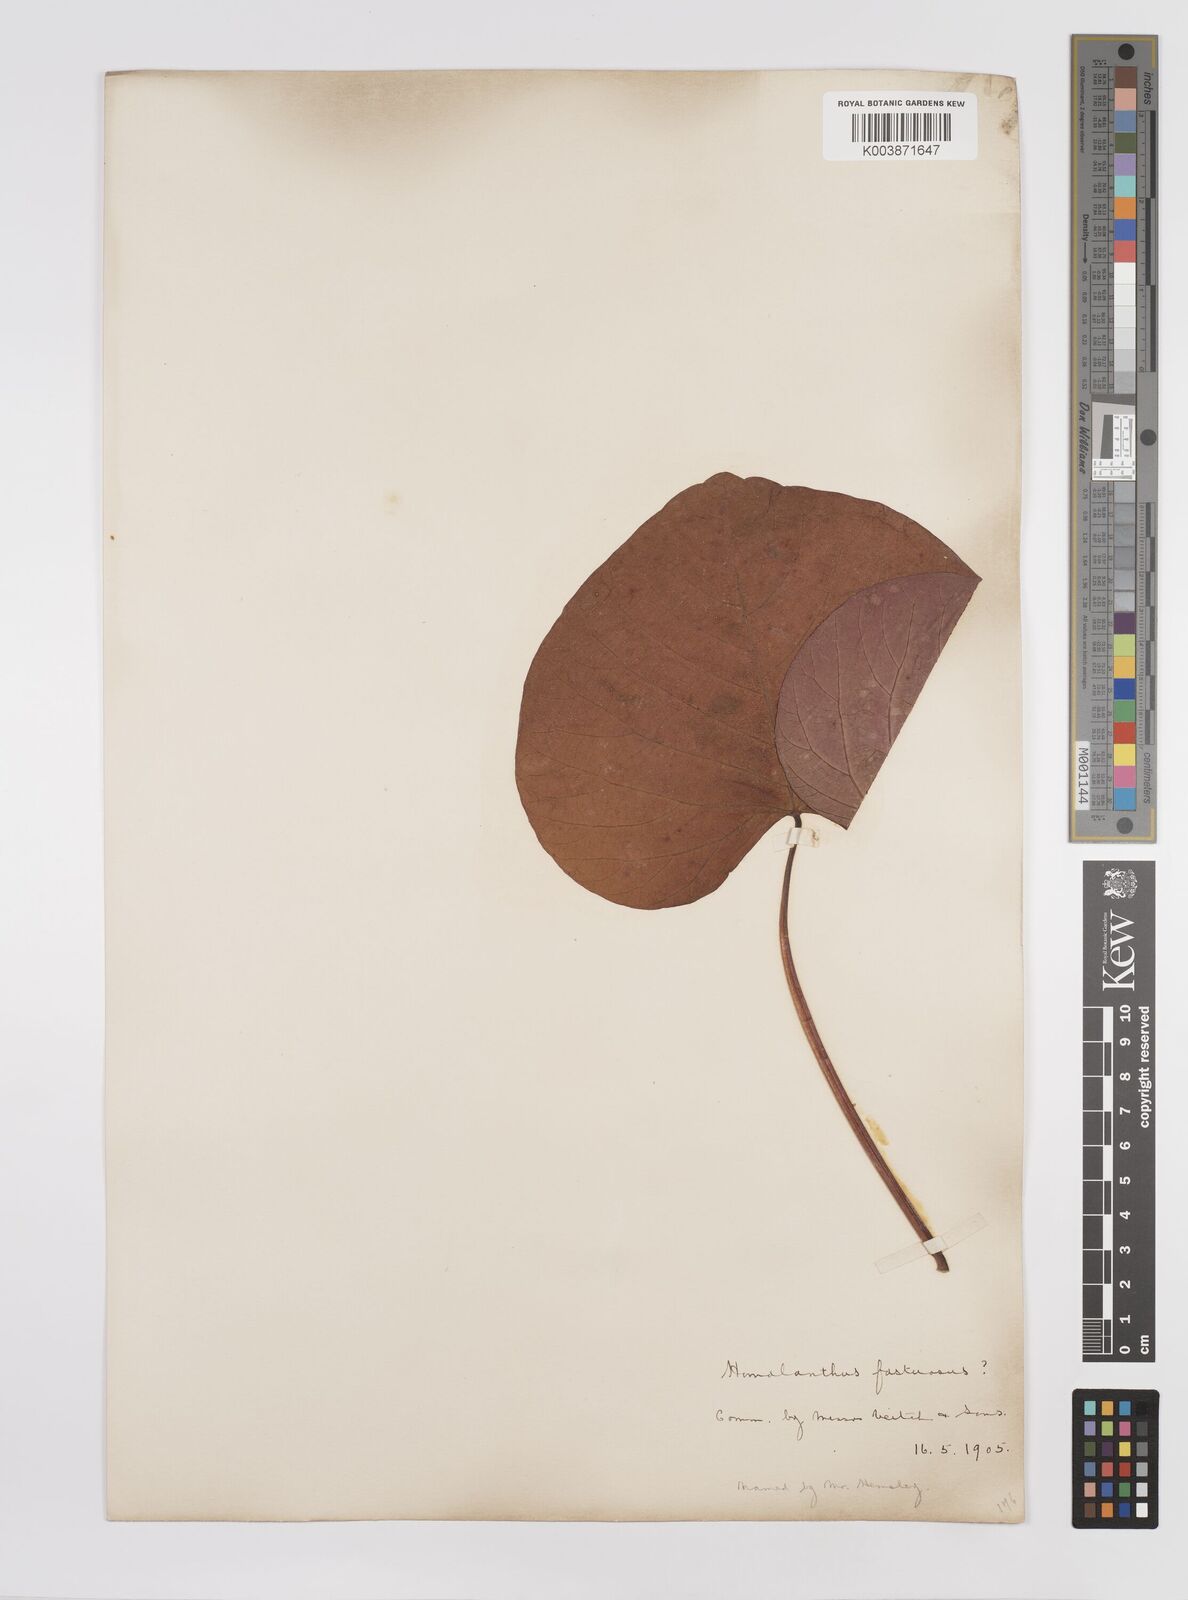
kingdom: Plantae
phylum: Tracheophyta
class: Magnoliopsida
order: Malpighiales
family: Euphorbiaceae
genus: Homalanthus
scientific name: Homalanthus fastuosus
